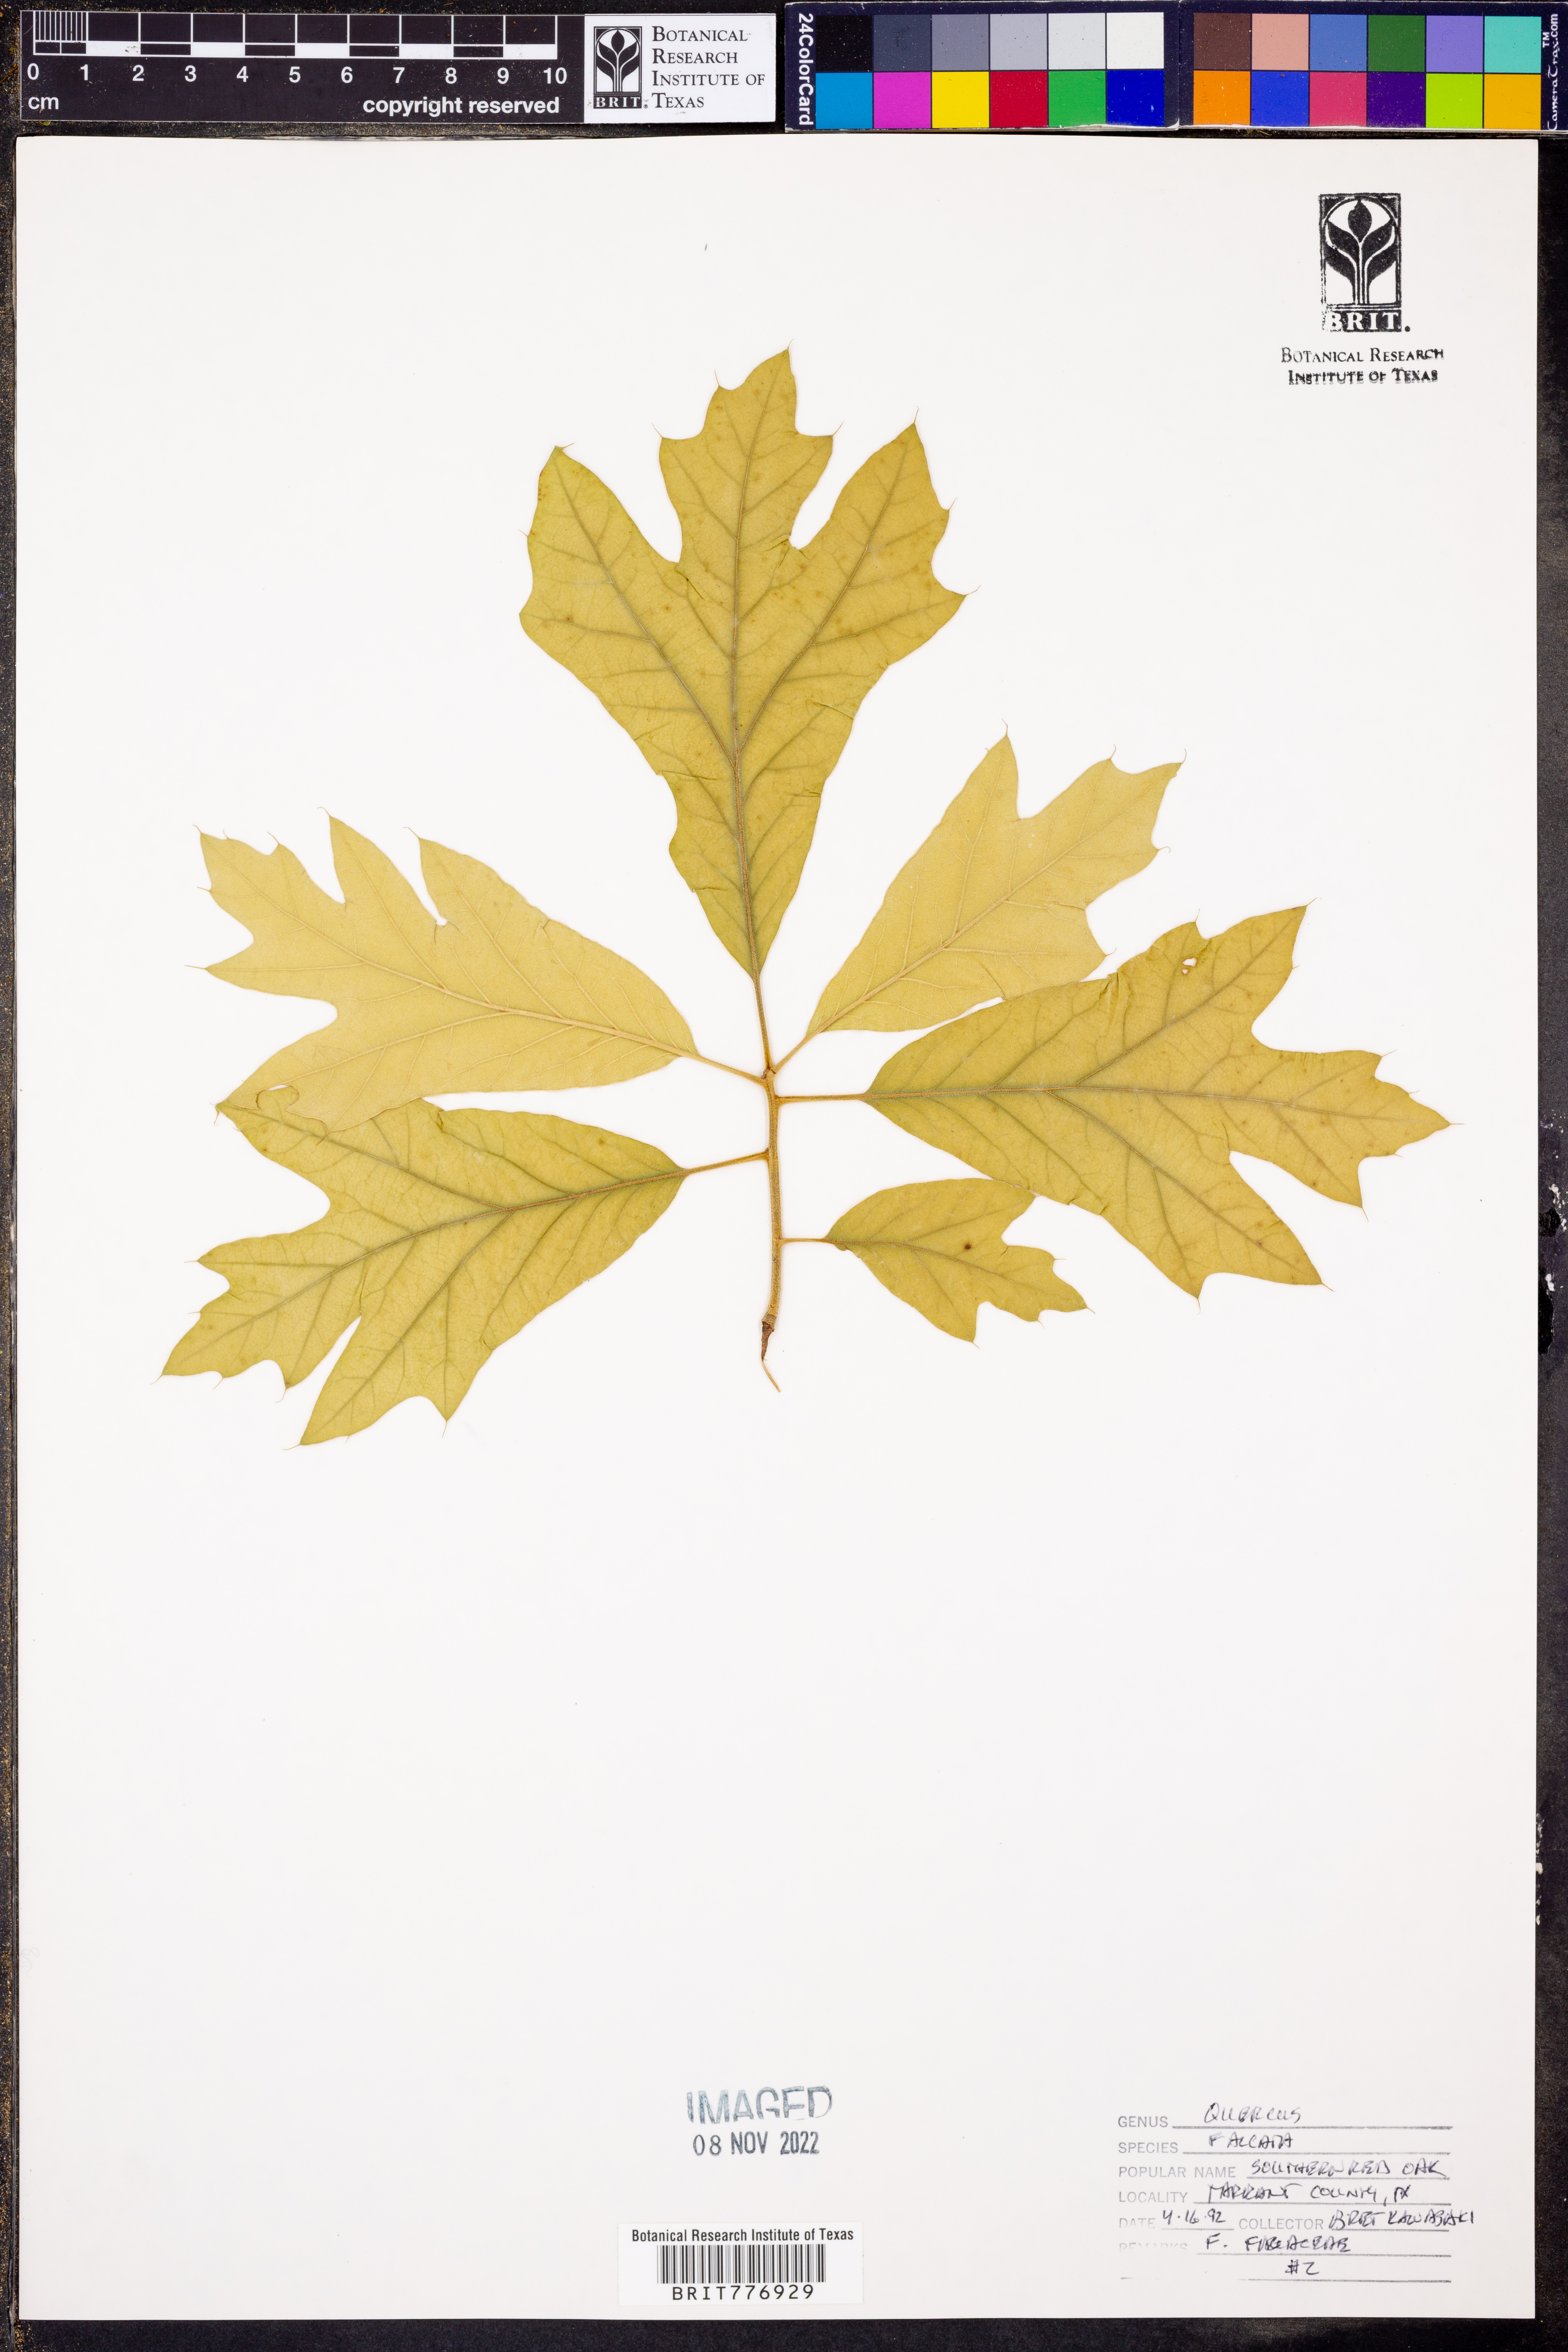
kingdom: Plantae
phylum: Tracheophyta
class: Magnoliopsida
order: Fagales
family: Fagaceae
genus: Quercus
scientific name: Quercus falcata
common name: Southern red oak
